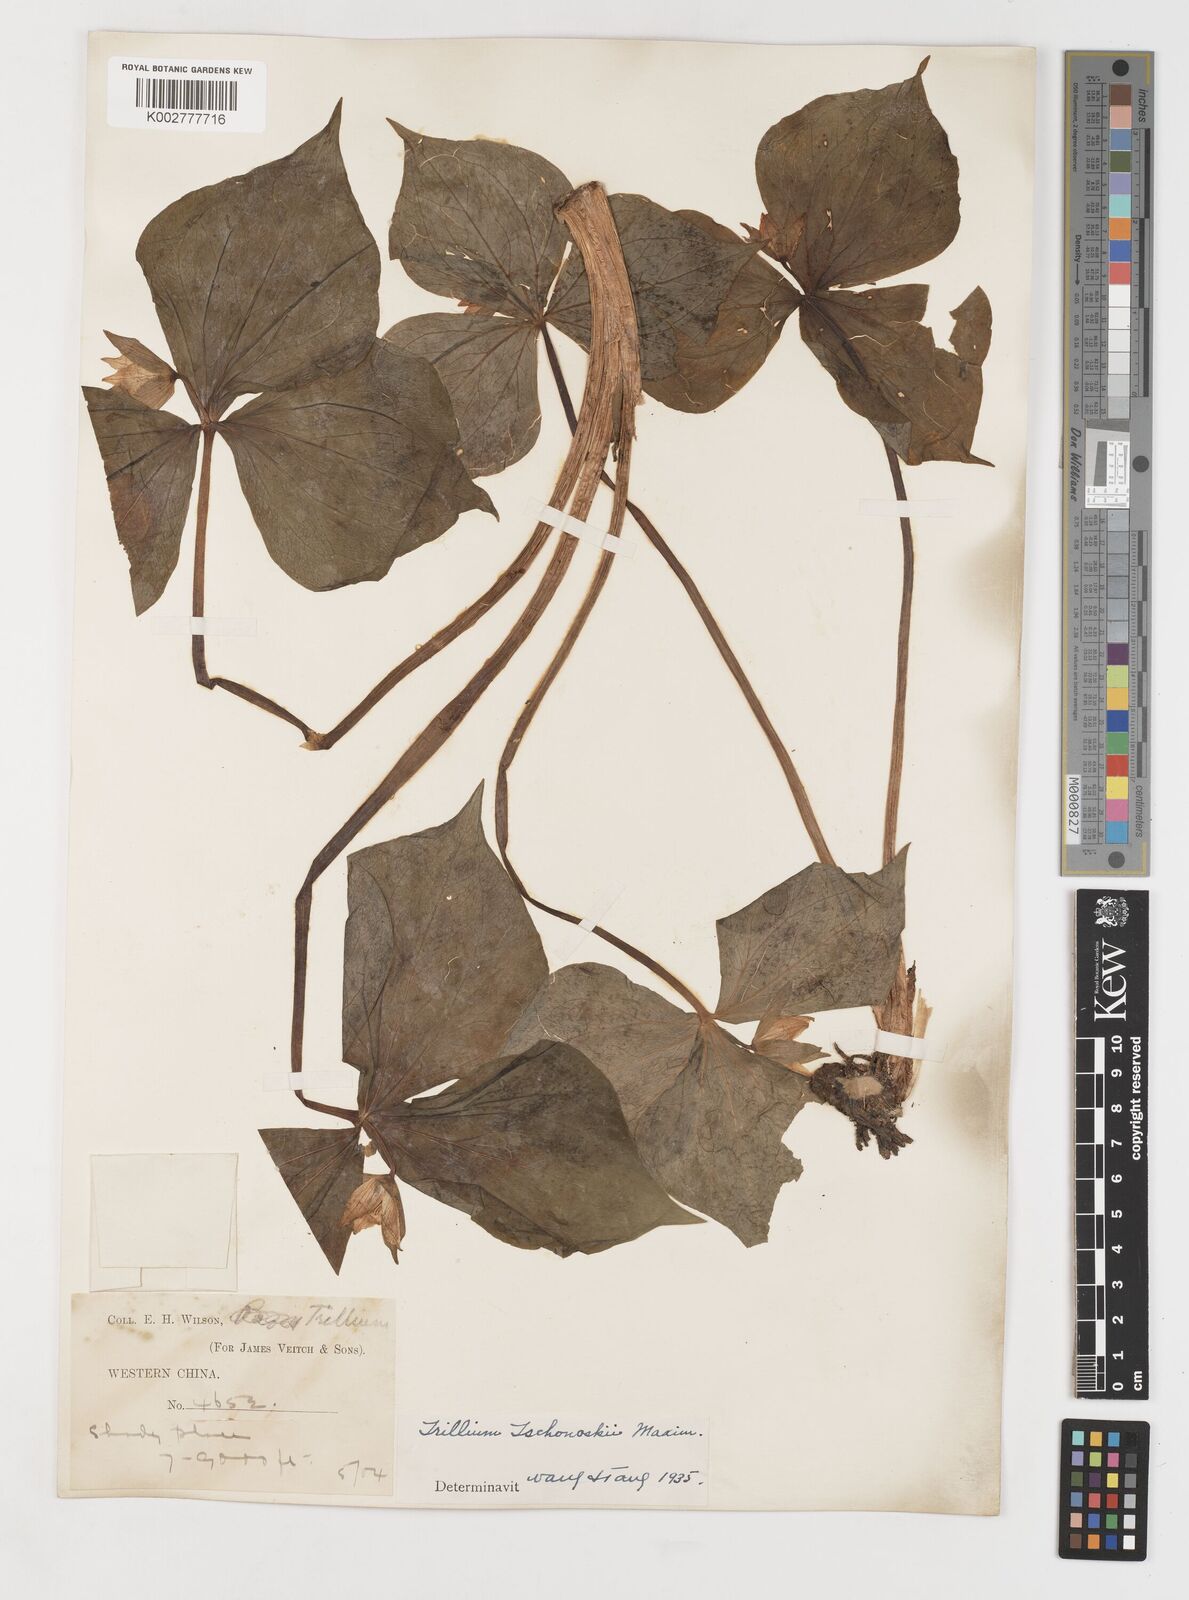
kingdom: Plantae
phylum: Tracheophyta
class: Liliopsida
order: Liliales
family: Melanthiaceae
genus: Trillium
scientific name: Trillium tschonoskii
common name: A pearl on head
